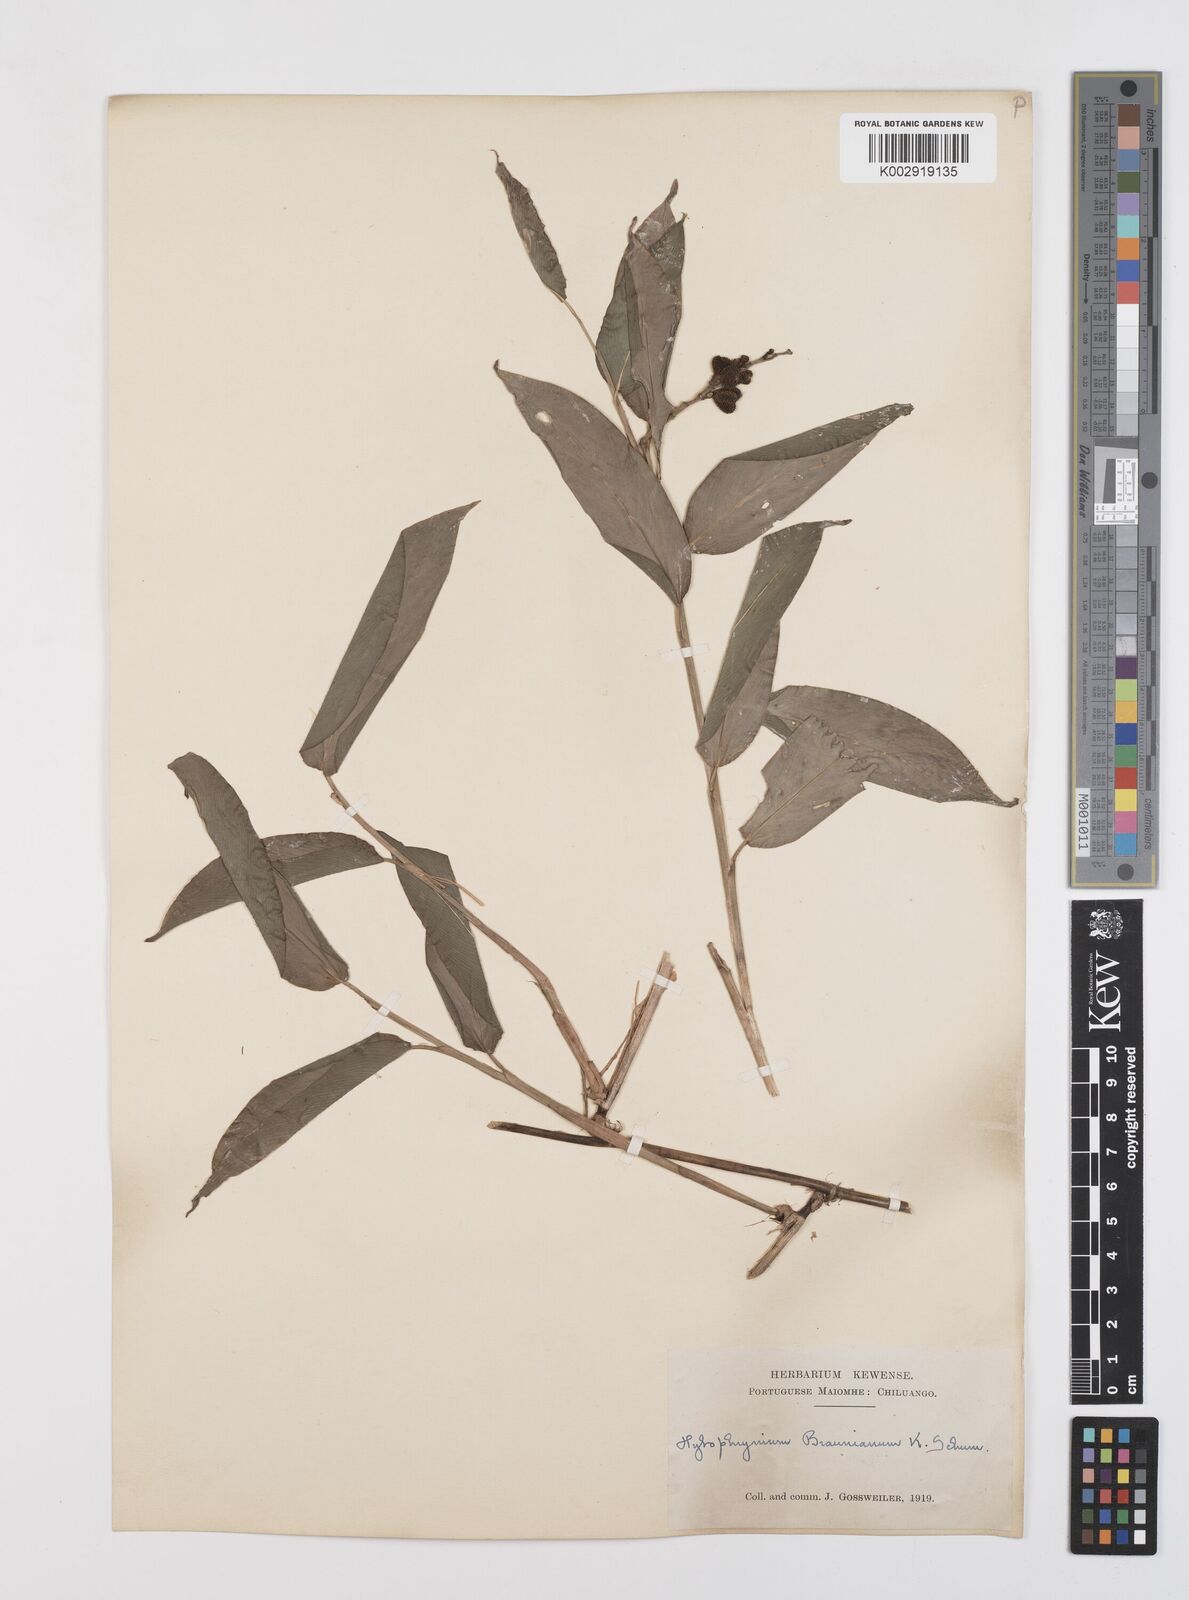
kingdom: Plantae
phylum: Tracheophyta
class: Liliopsida
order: Zingiberales
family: Marantaceae
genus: Trachyphrynium
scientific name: Trachyphrynium braunianum
